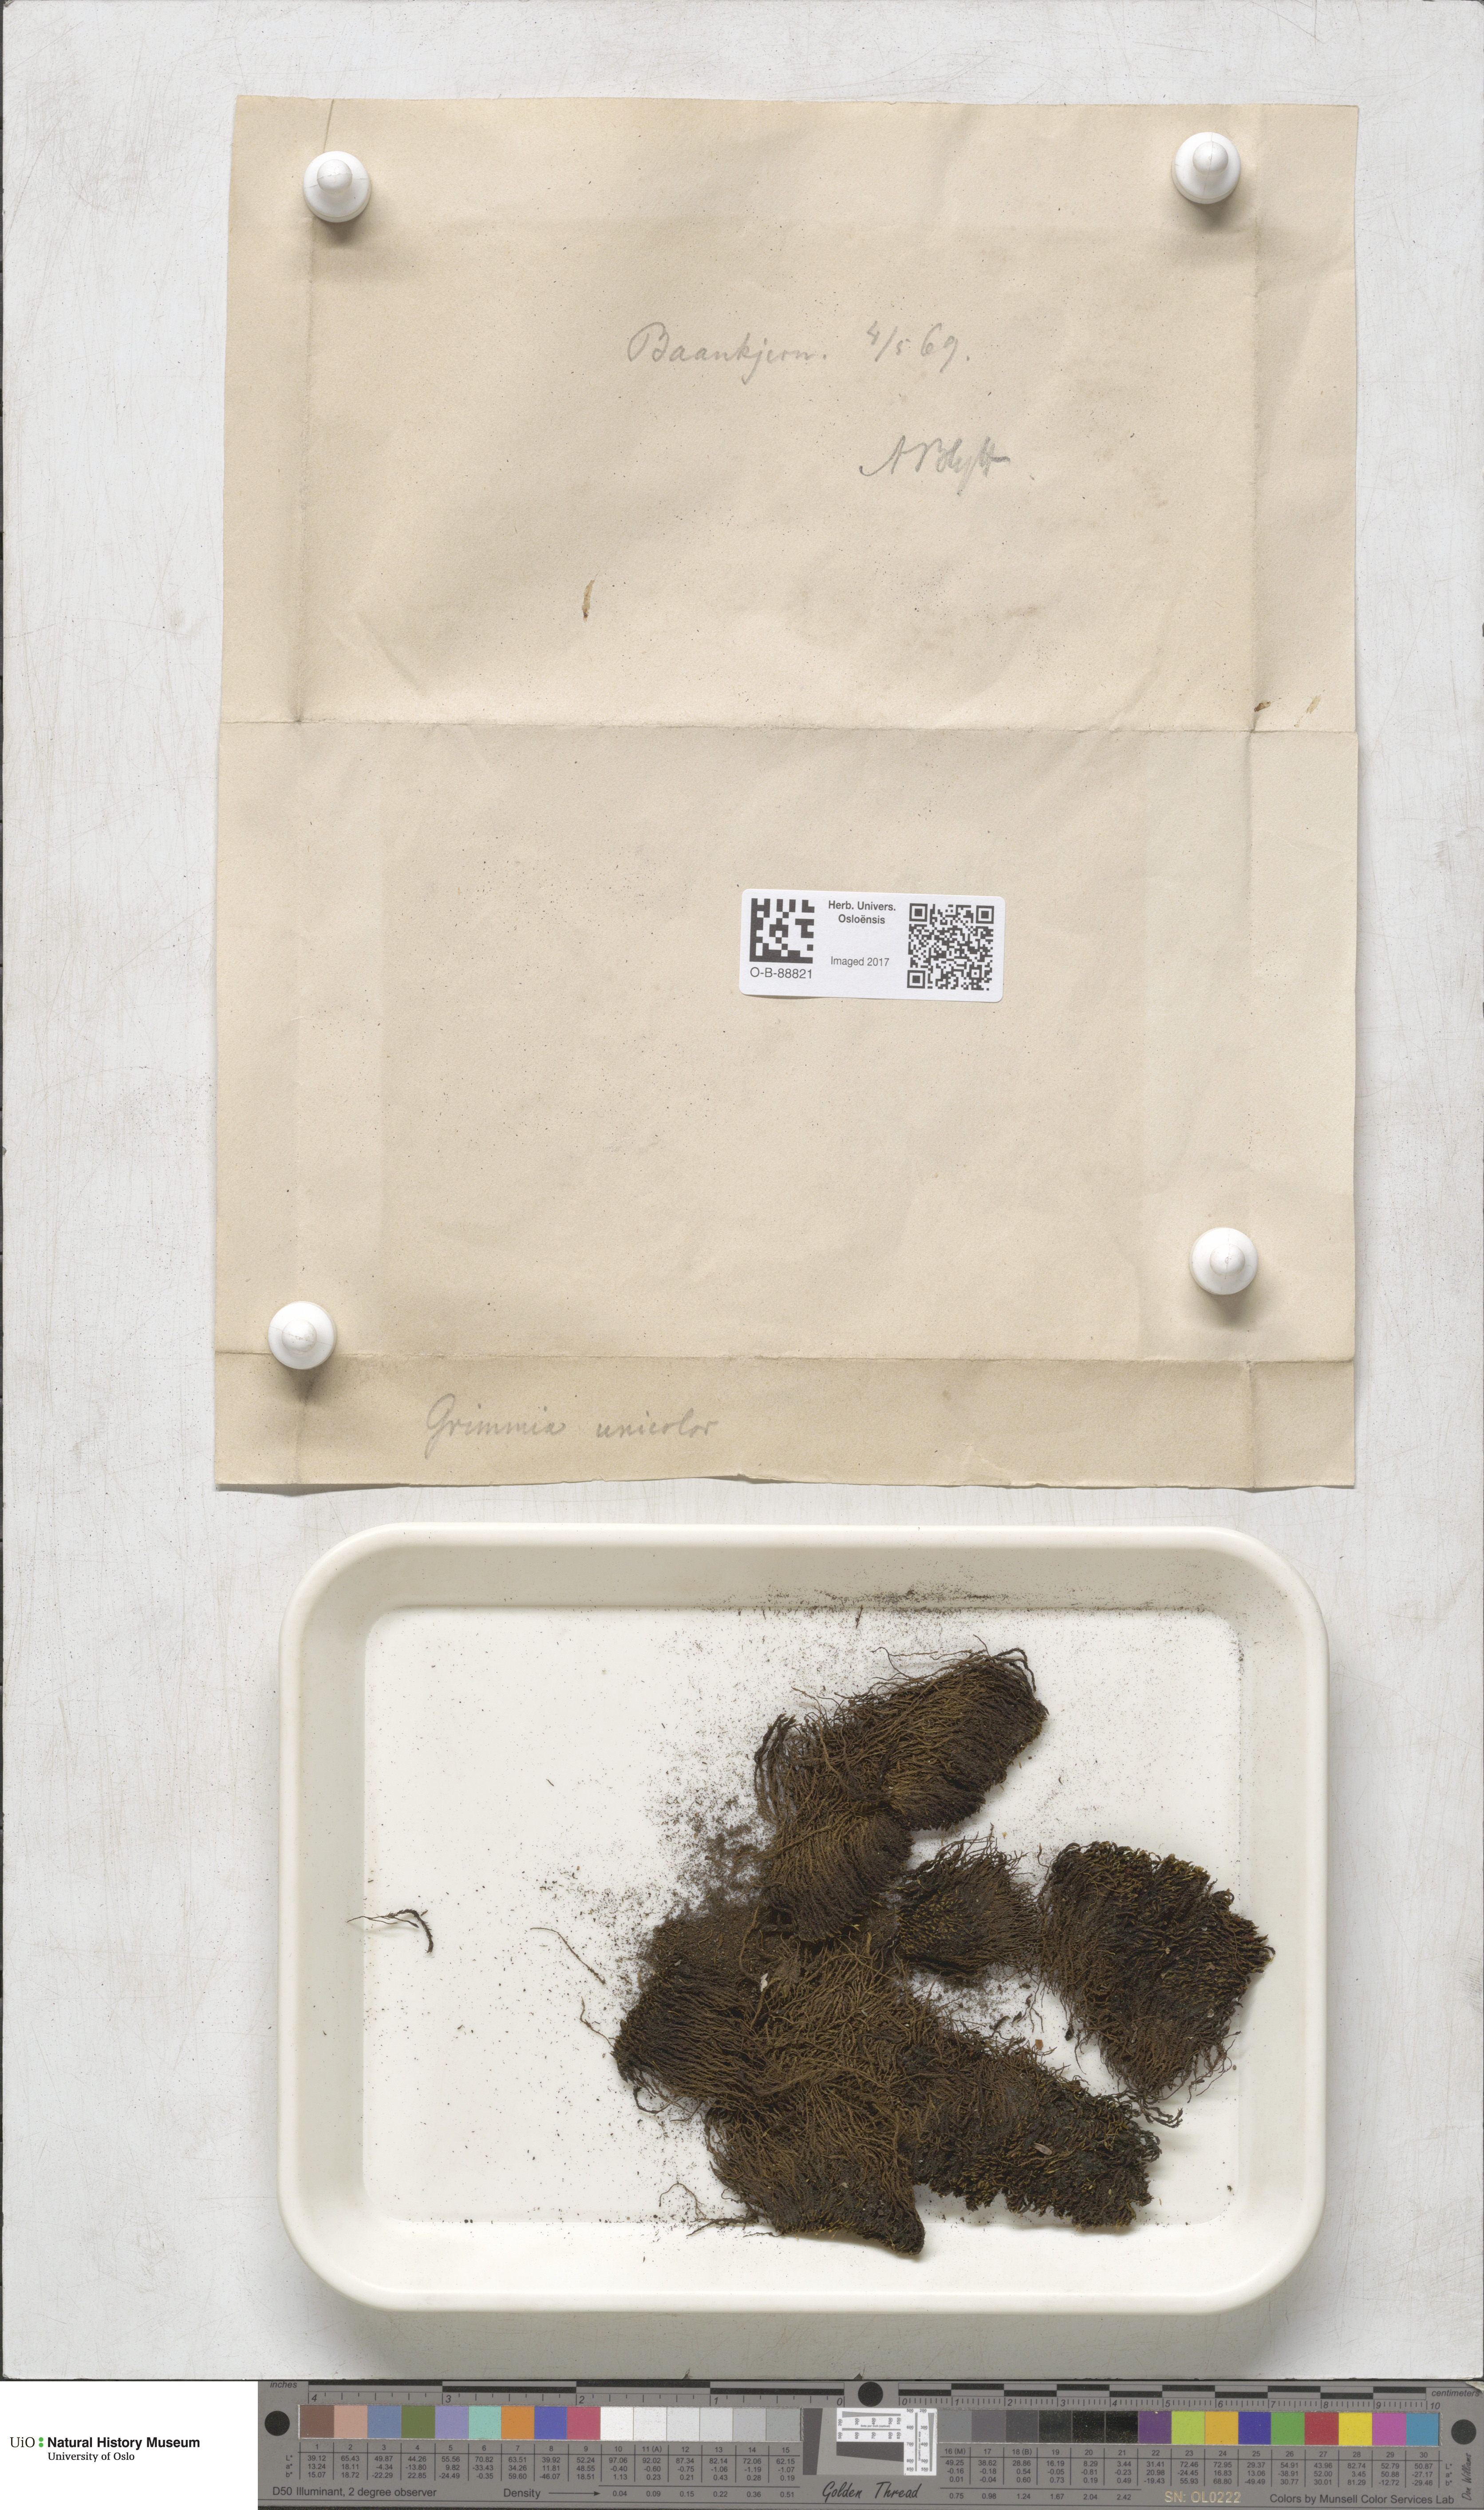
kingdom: Plantae
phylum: Bryophyta
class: Bryopsida
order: Grimmiales
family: Grimmiaceae
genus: Grimmia
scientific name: Grimmia unicolor
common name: Dingy grimmia
